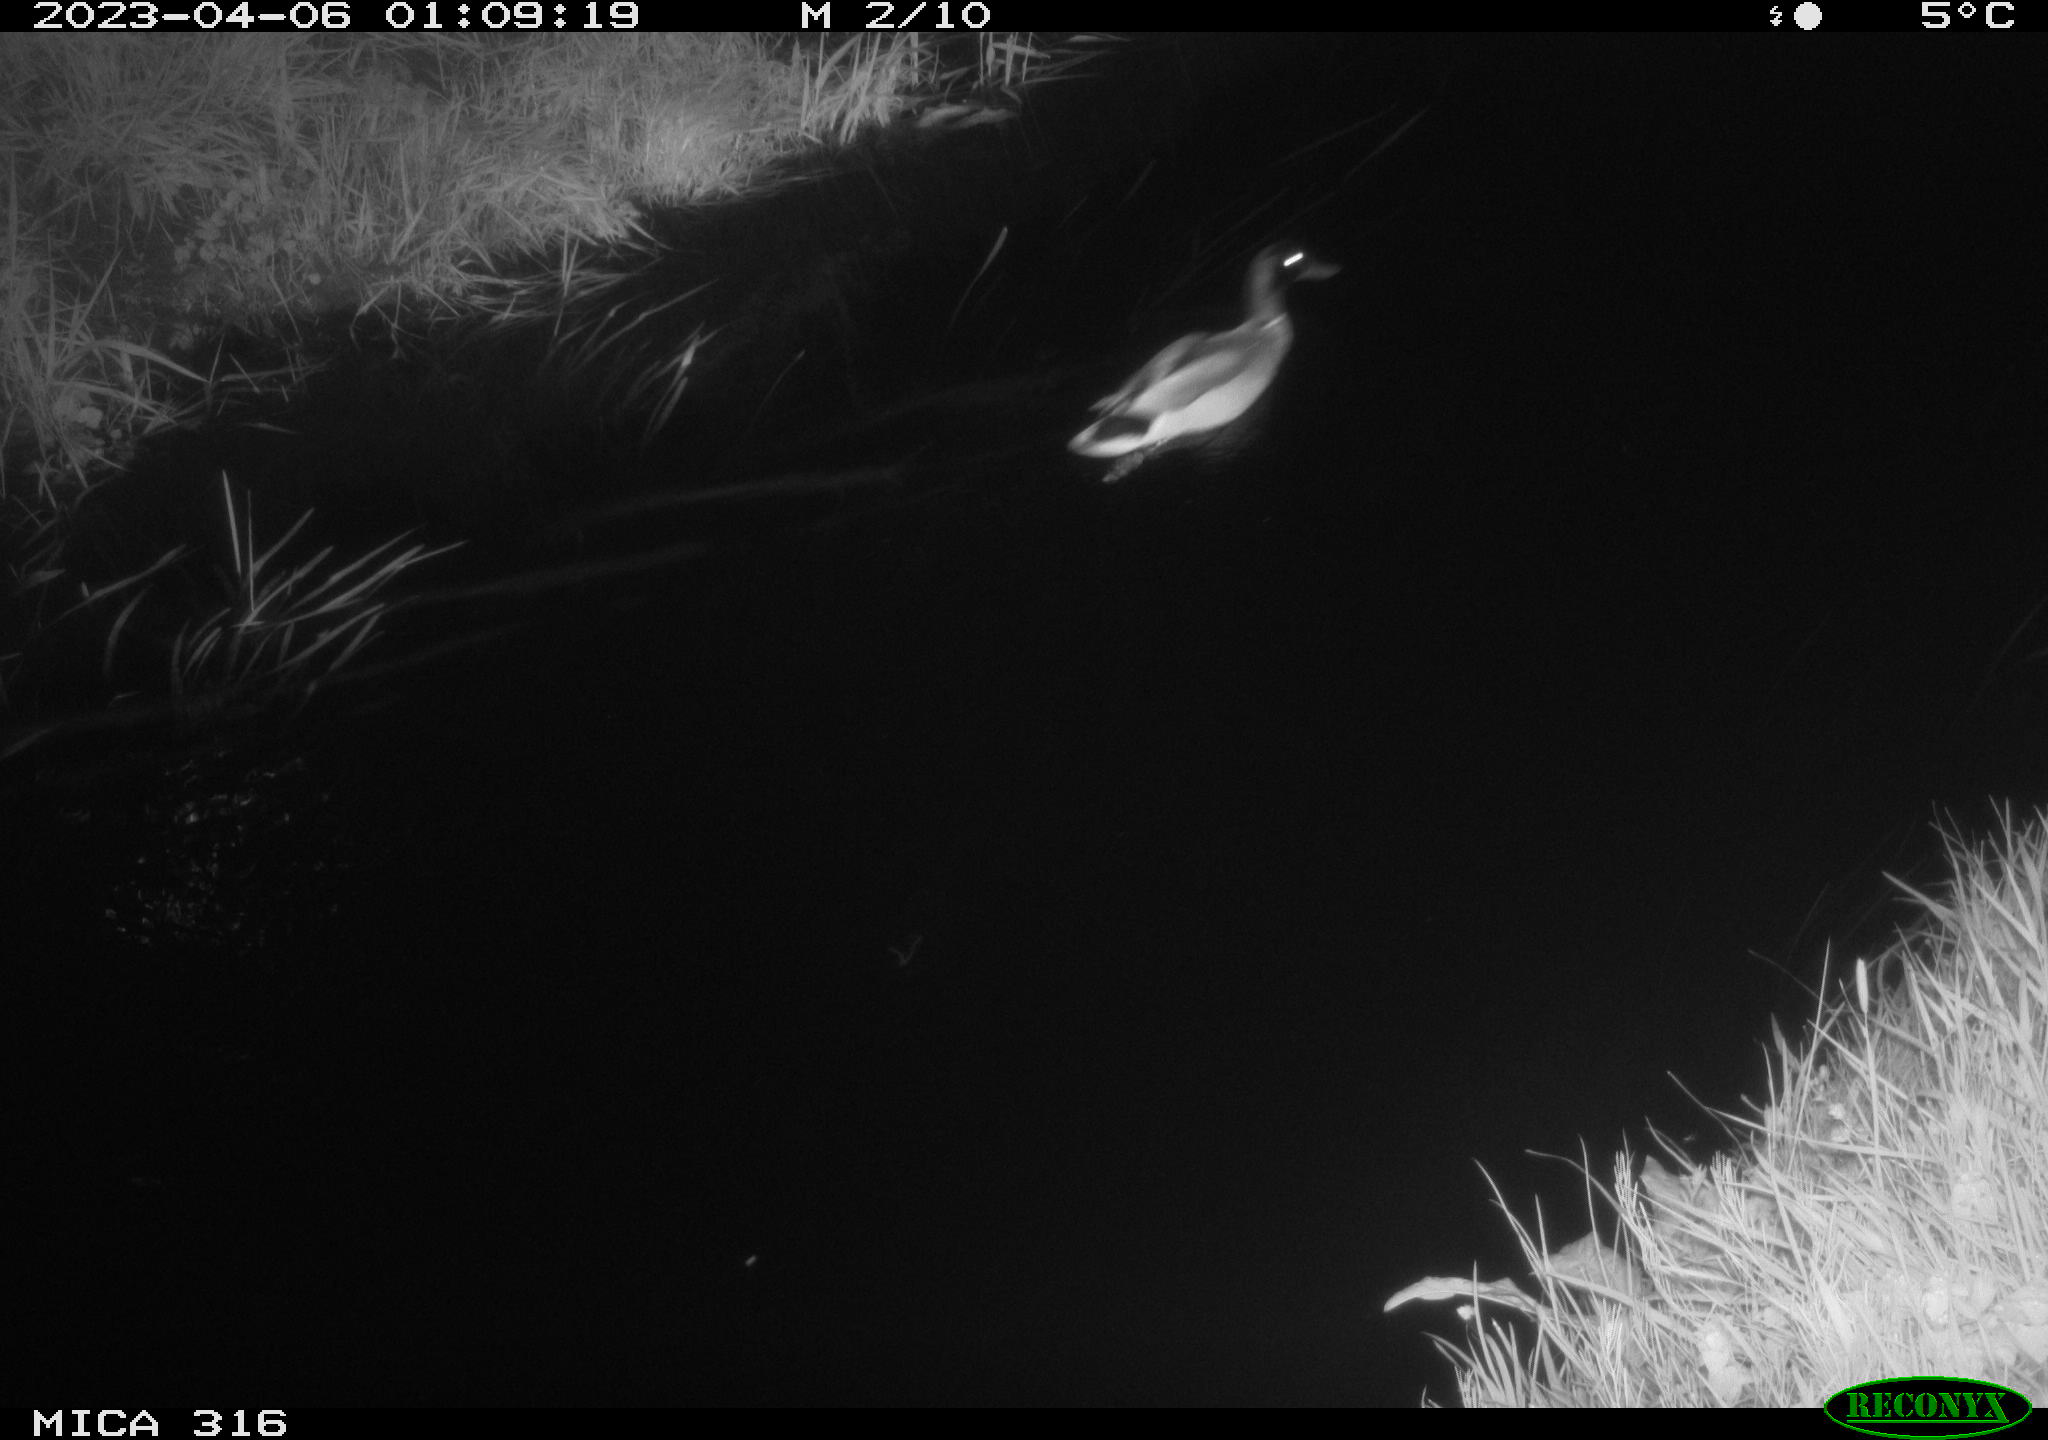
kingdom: Animalia
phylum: Chordata
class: Aves
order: Anseriformes
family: Anatidae
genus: Anas
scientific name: Anas
